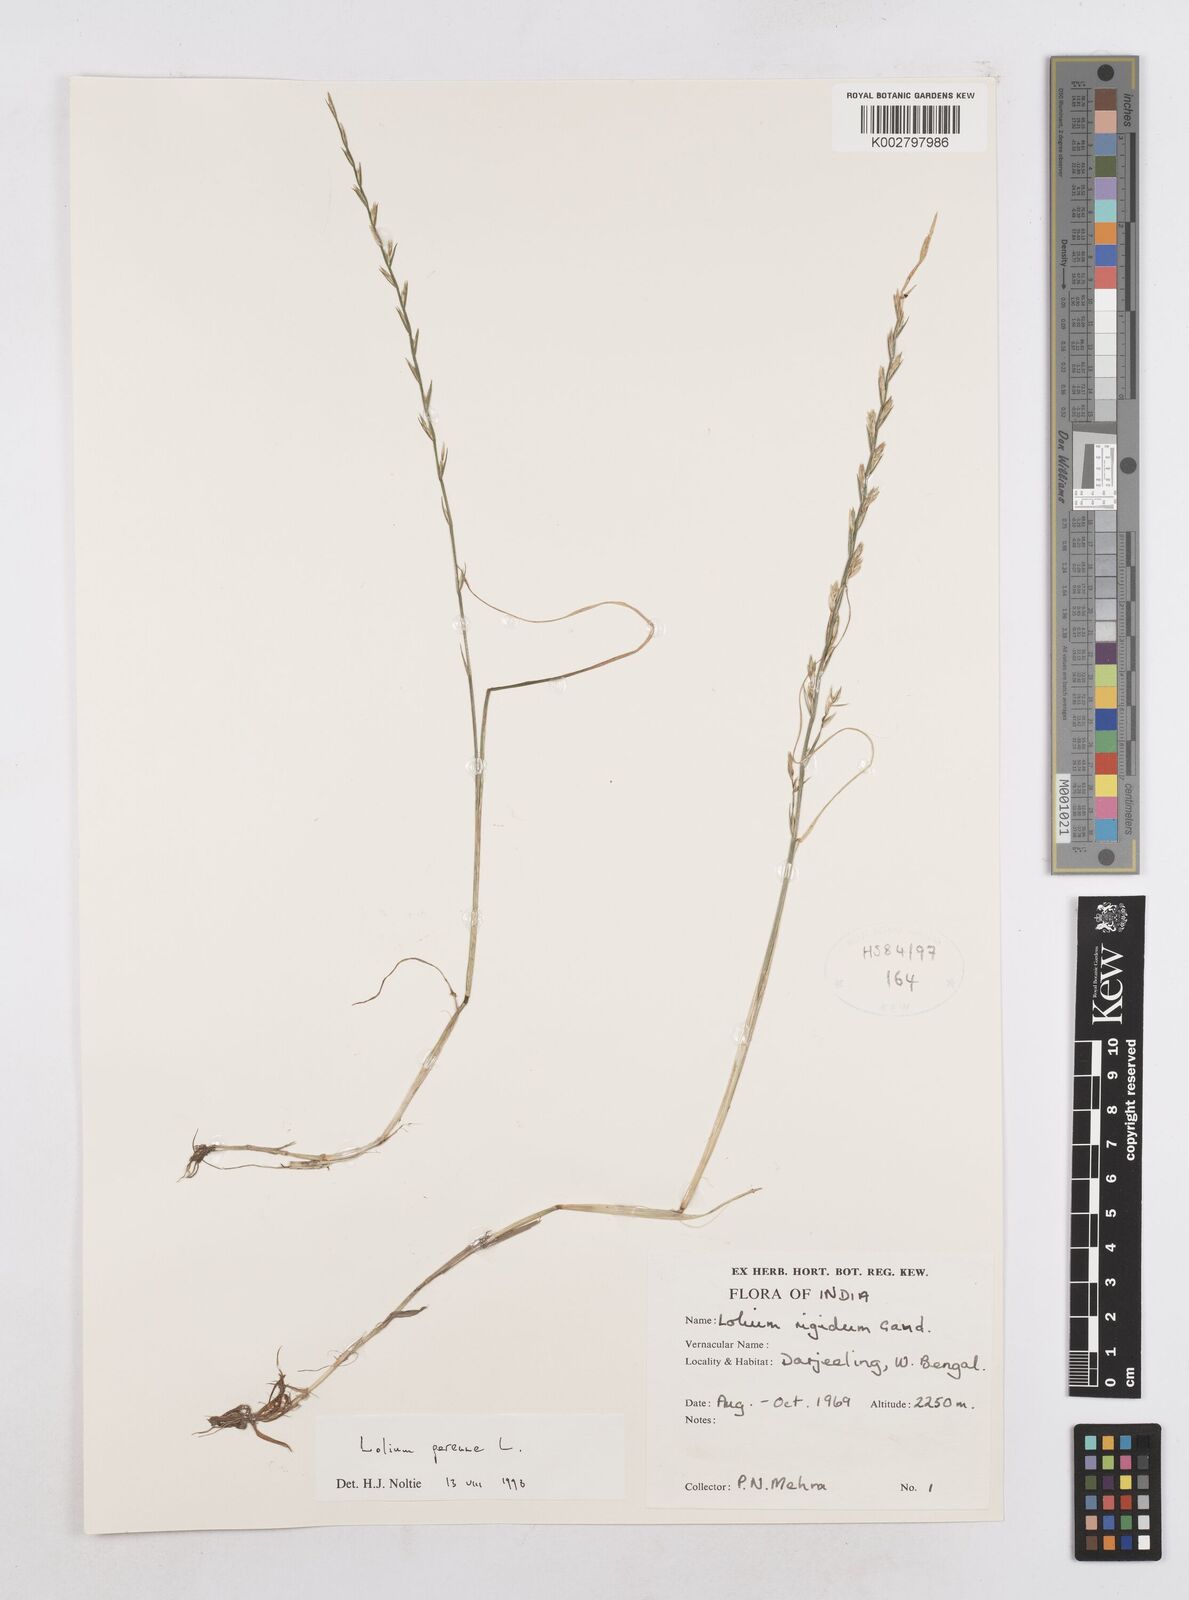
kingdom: Plantae
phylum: Tracheophyta
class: Liliopsida
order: Poales
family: Poaceae
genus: Lolium
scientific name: Lolium perenne
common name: Perennial ryegrass
